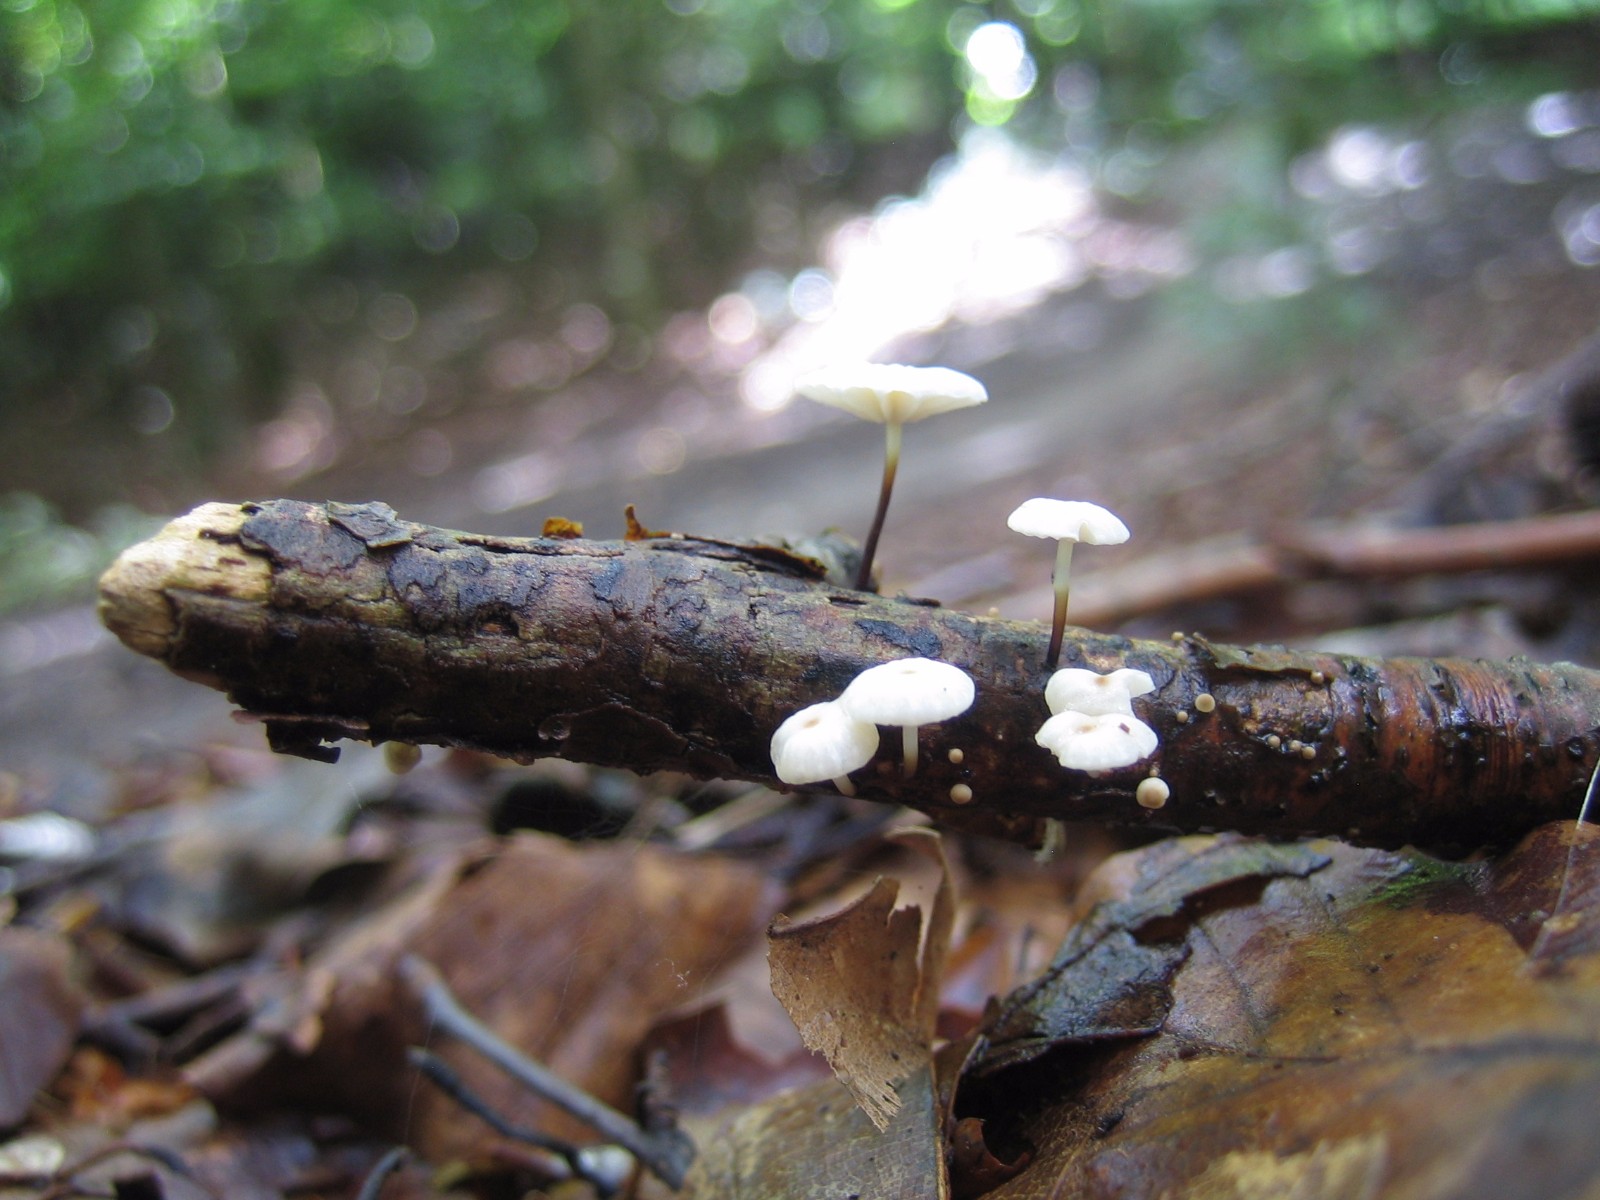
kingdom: Fungi
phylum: Basidiomycota
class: Agaricomycetes
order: Agaricales
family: Marasmiaceae
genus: Marasmius
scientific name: Marasmius rotula
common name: hjul-bruskhat
